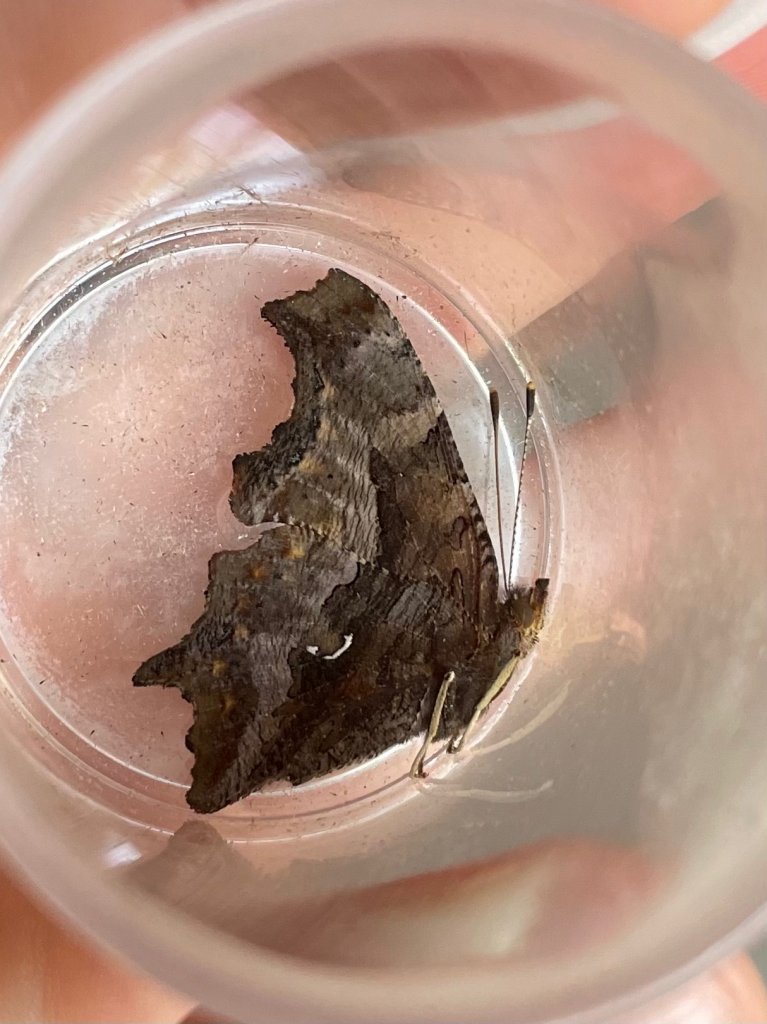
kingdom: Animalia
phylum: Arthropoda
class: Insecta
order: Lepidoptera
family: Nymphalidae
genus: Polygonia
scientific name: Polygonia comma
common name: Eastern Comma
